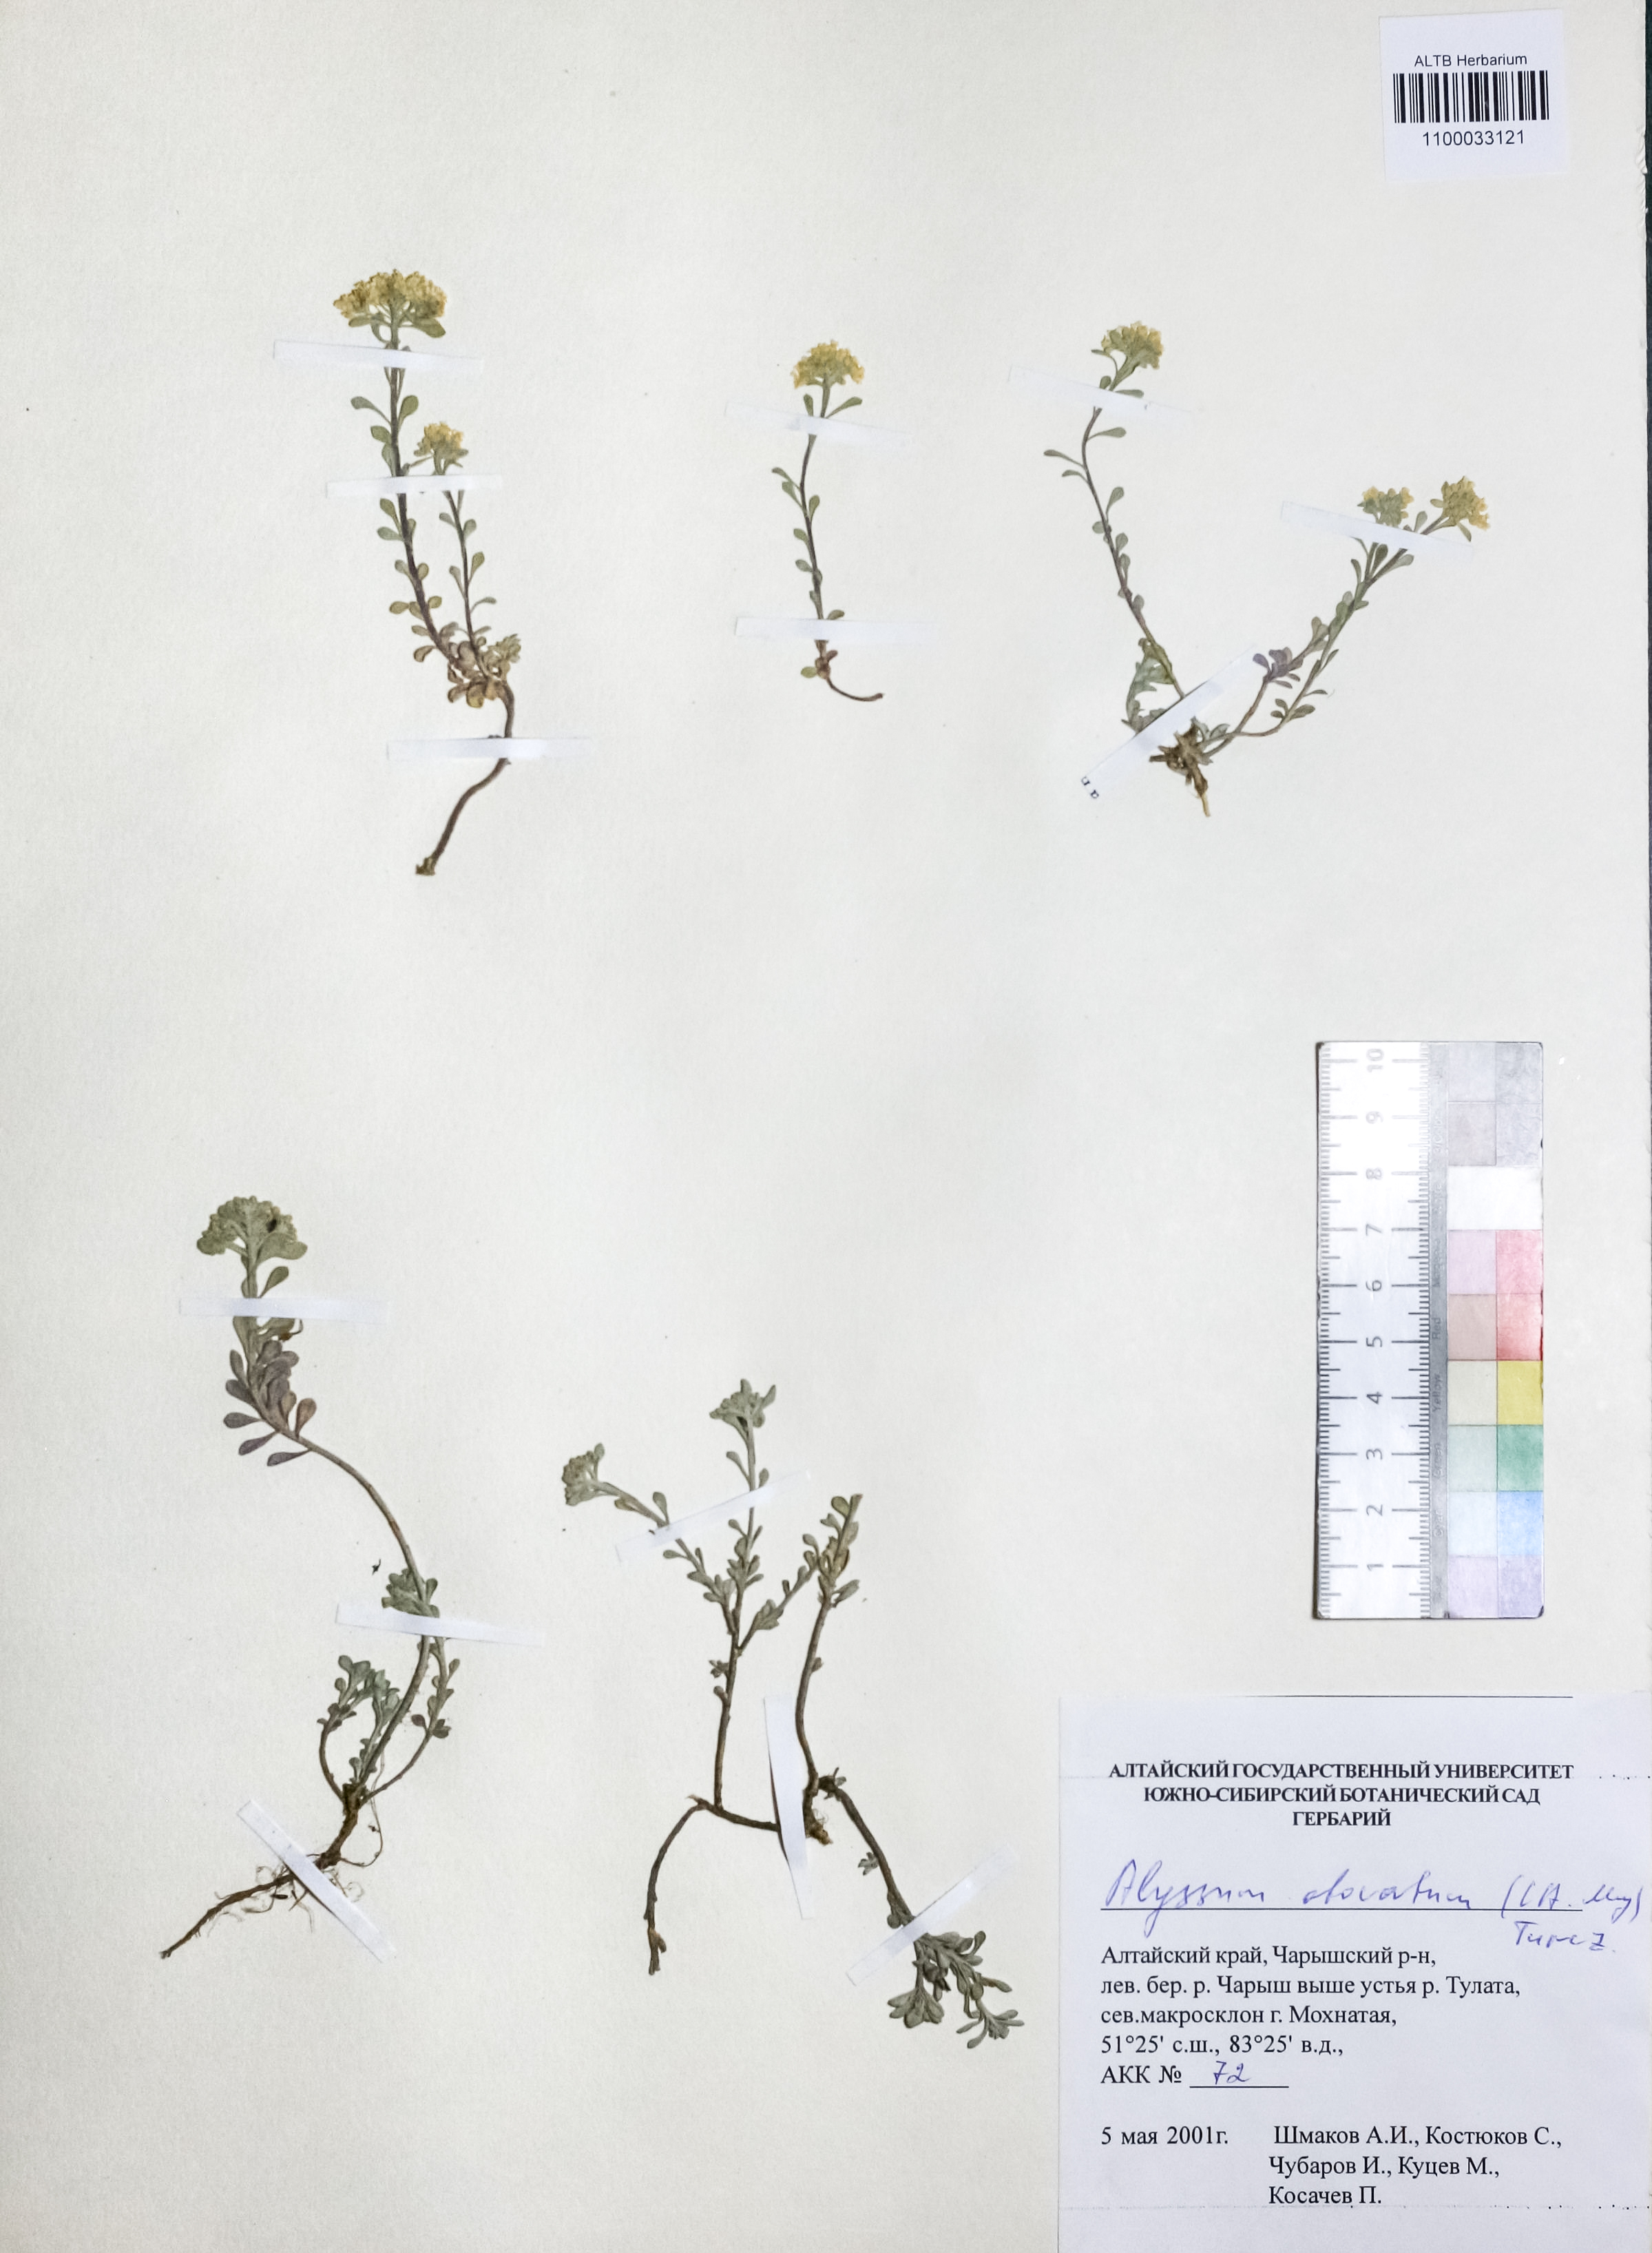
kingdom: Plantae
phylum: Tracheophyta
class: Magnoliopsida
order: Brassicales
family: Brassicaceae
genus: Odontarrhena
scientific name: Odontarrhena obovata
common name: American alyssum
